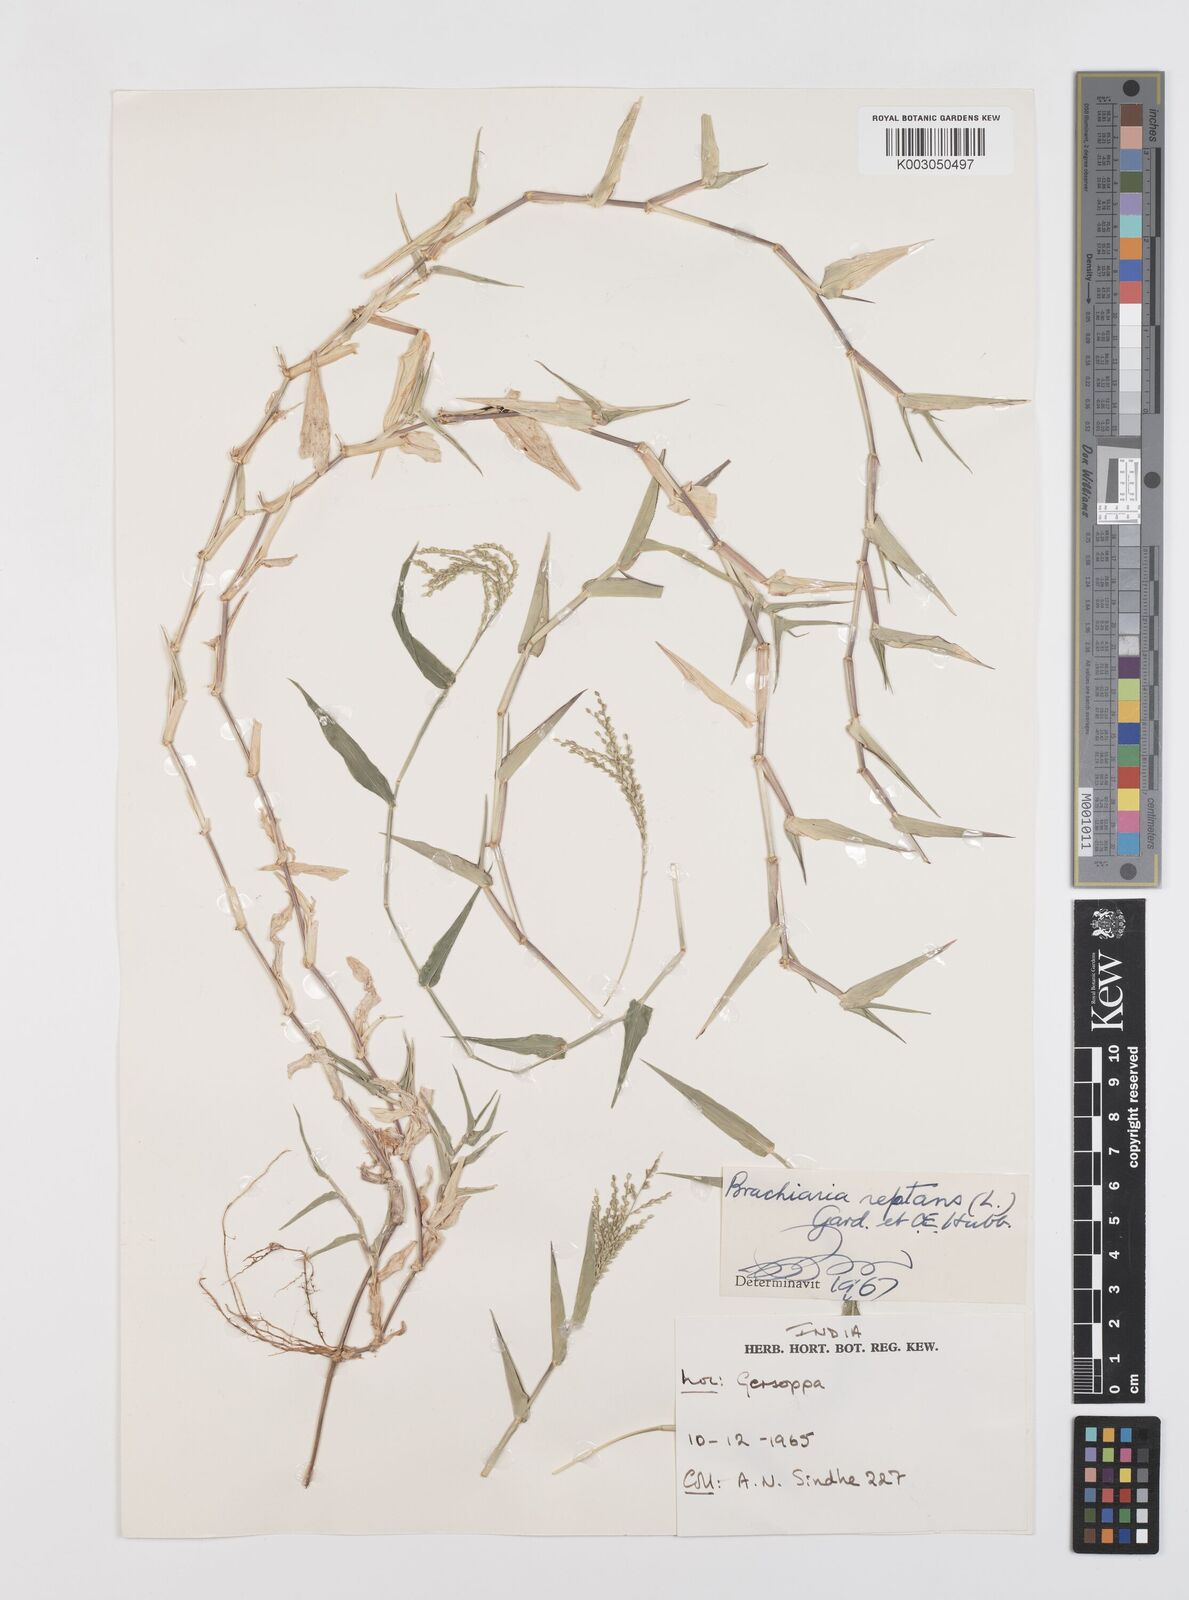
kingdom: Plantae
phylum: Tracheophyta
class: Liliopsida
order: Poales
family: Poaceae
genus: Urochloa
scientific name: Urochloa reptans
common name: Sprawling signalgrass
